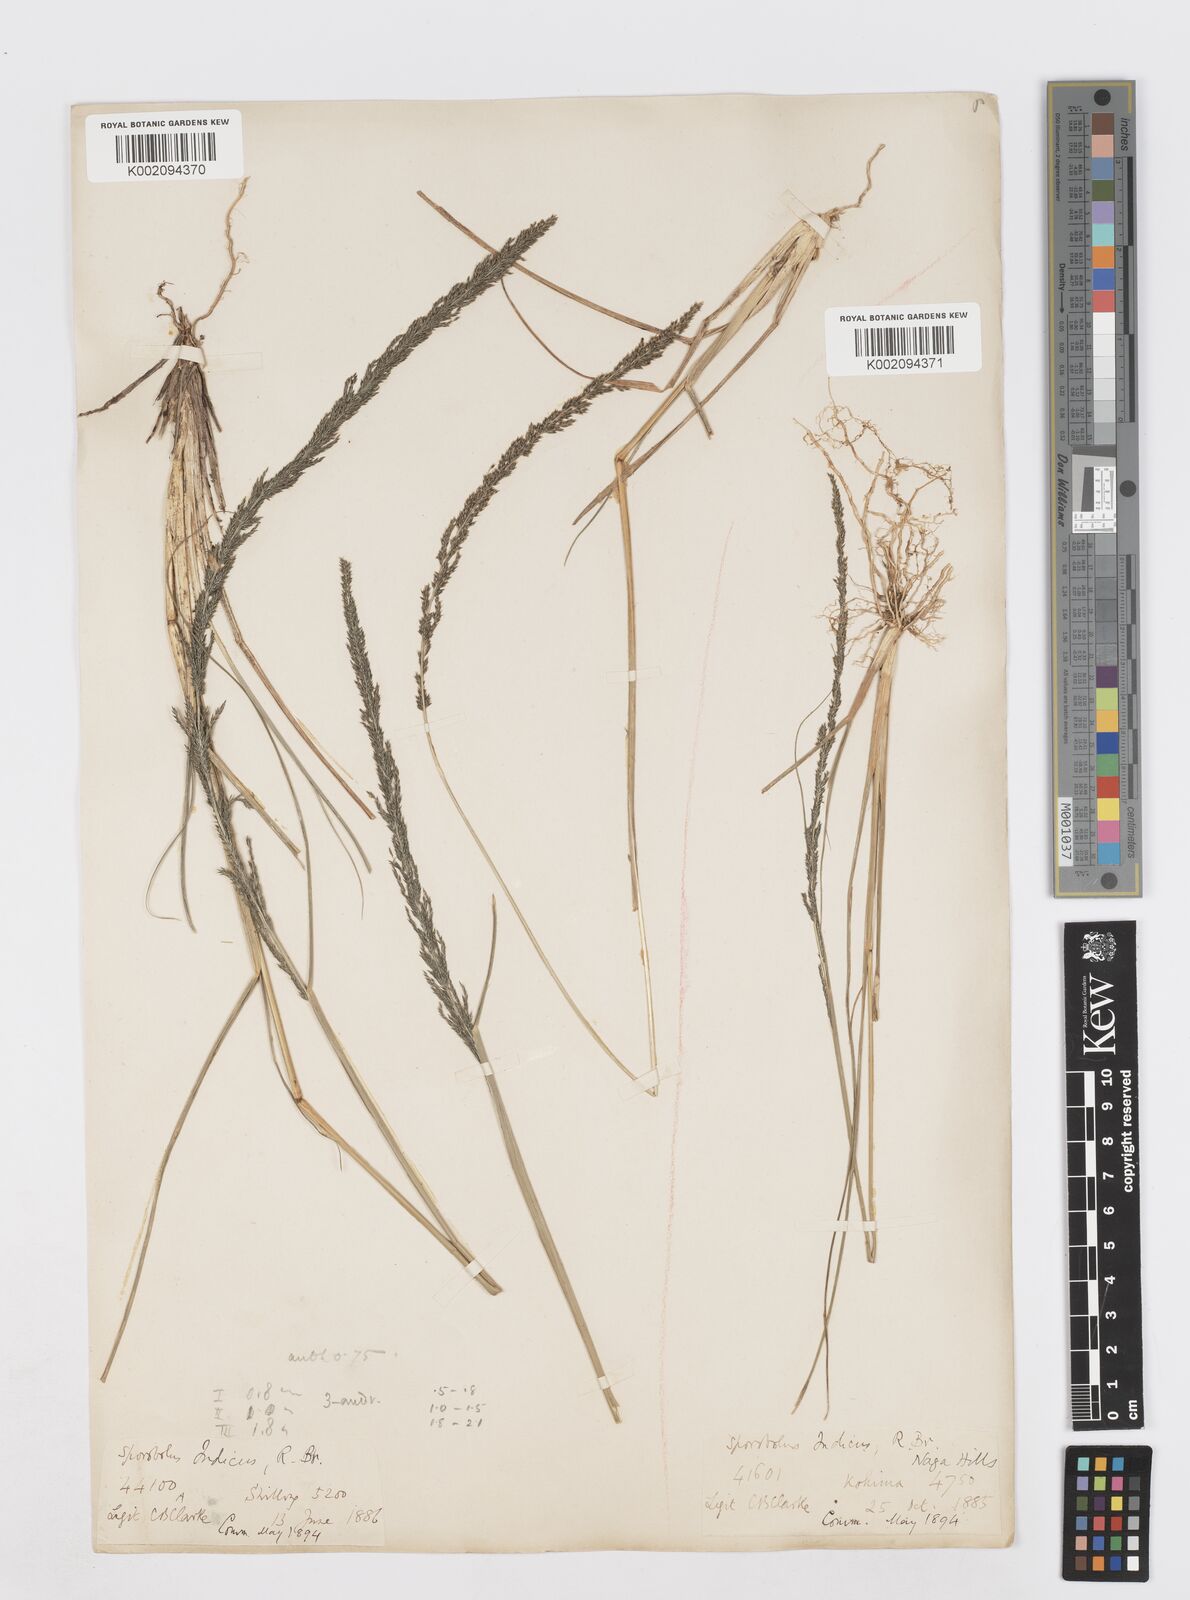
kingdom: Plantae
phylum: Tracheophyta
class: Liliopsida
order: Poales
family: Poaceae
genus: Sporobolus
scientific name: Sporobolus fertilis
